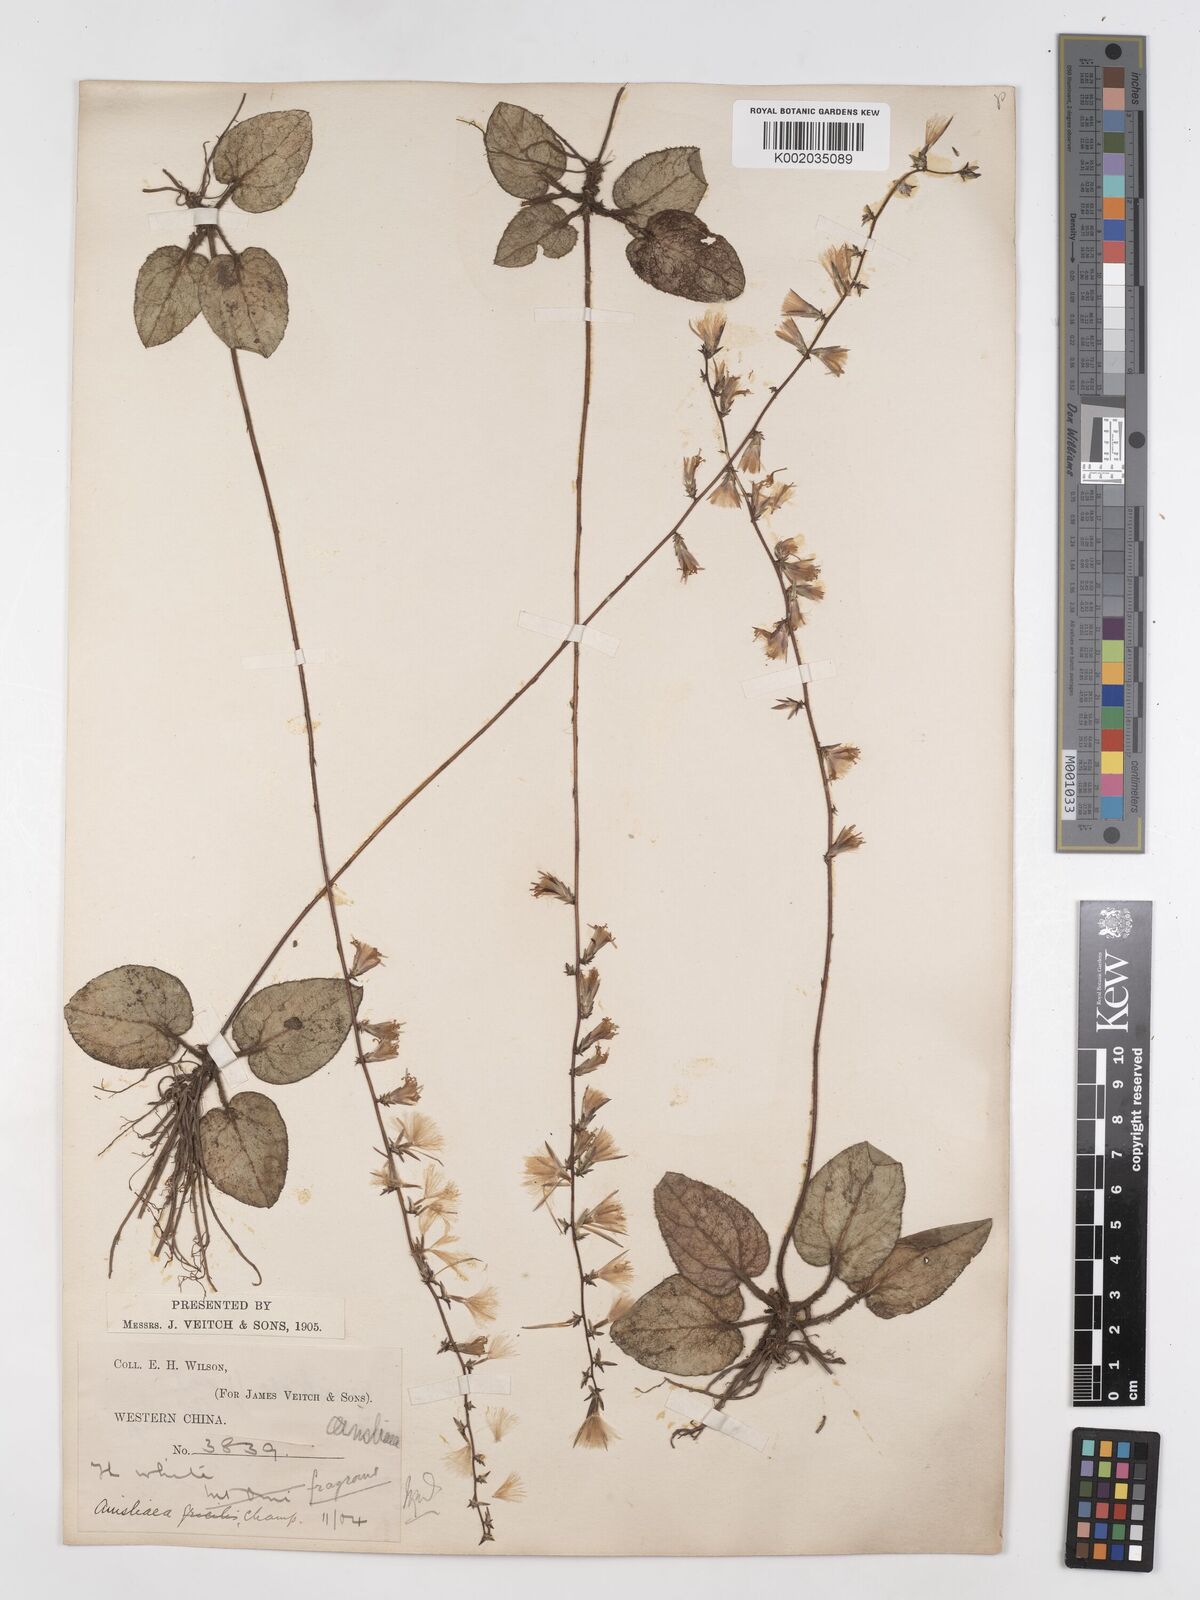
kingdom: Plantae
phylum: Tracheophyta
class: Magnoliopsida
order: Asterales
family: Asteraceae
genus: Ainsliaea
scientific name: Ainsliaea fragrans
